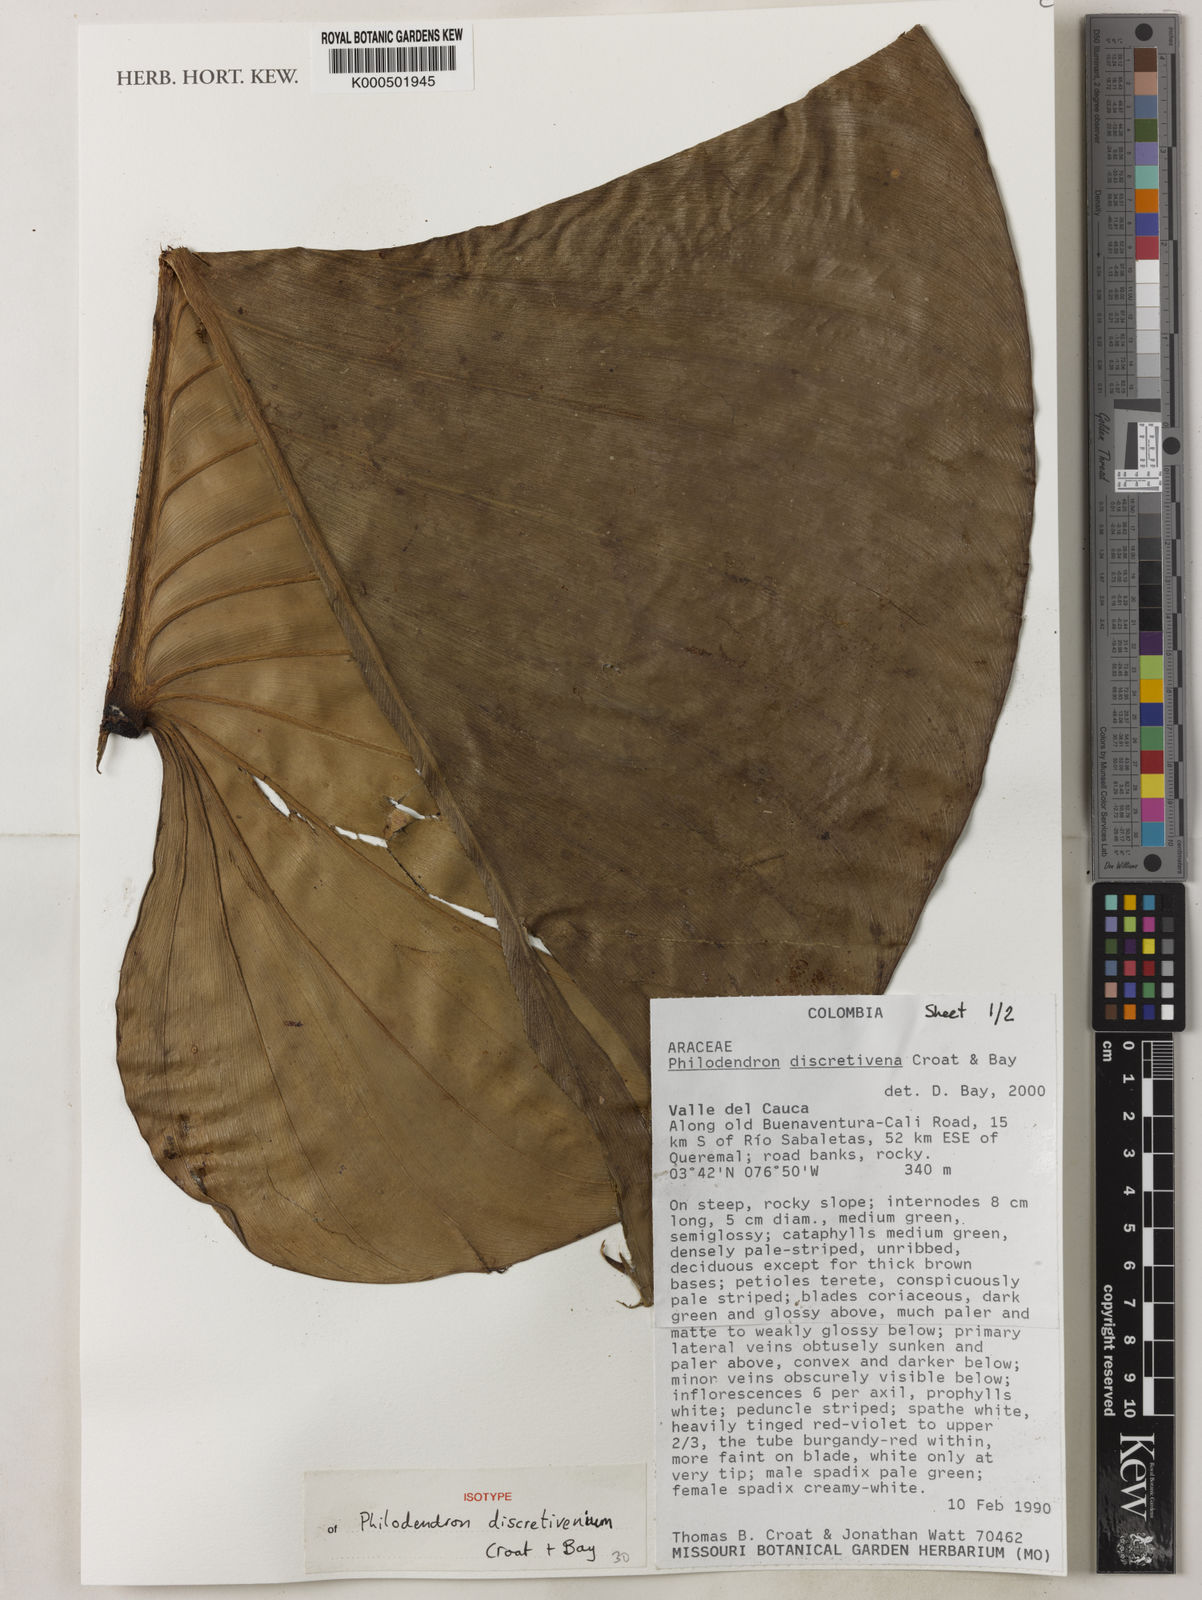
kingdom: Plantae
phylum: Tracheophyta
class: Liliopsida
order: Alismatales
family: Araceae
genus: Philodendron
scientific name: Philodendron discretivenium
